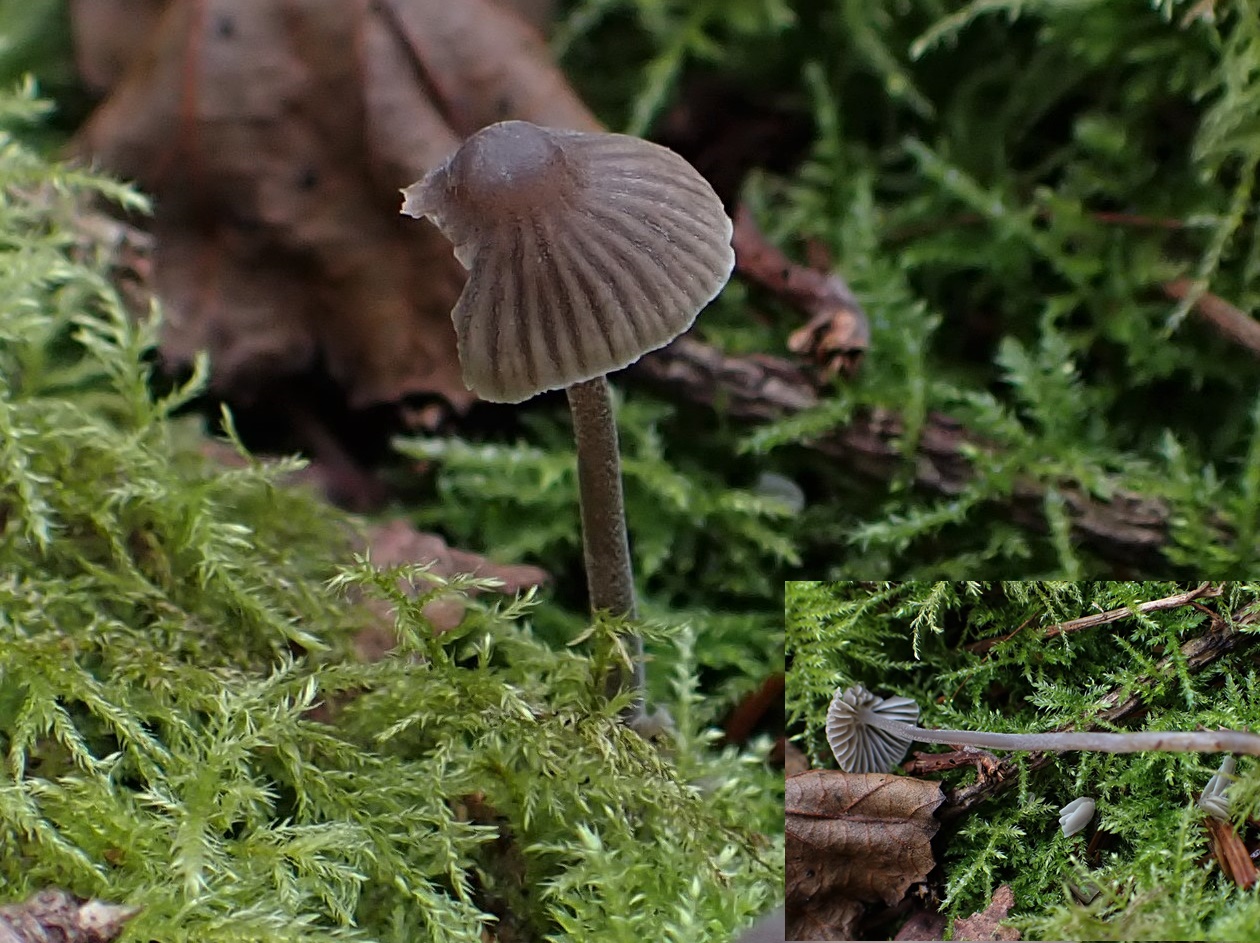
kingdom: Fungi
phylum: Basidiomycota
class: Agaricomycetes
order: Agaricales
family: Mycenaceae
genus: Mycena
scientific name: Mycena
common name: huesvamp
